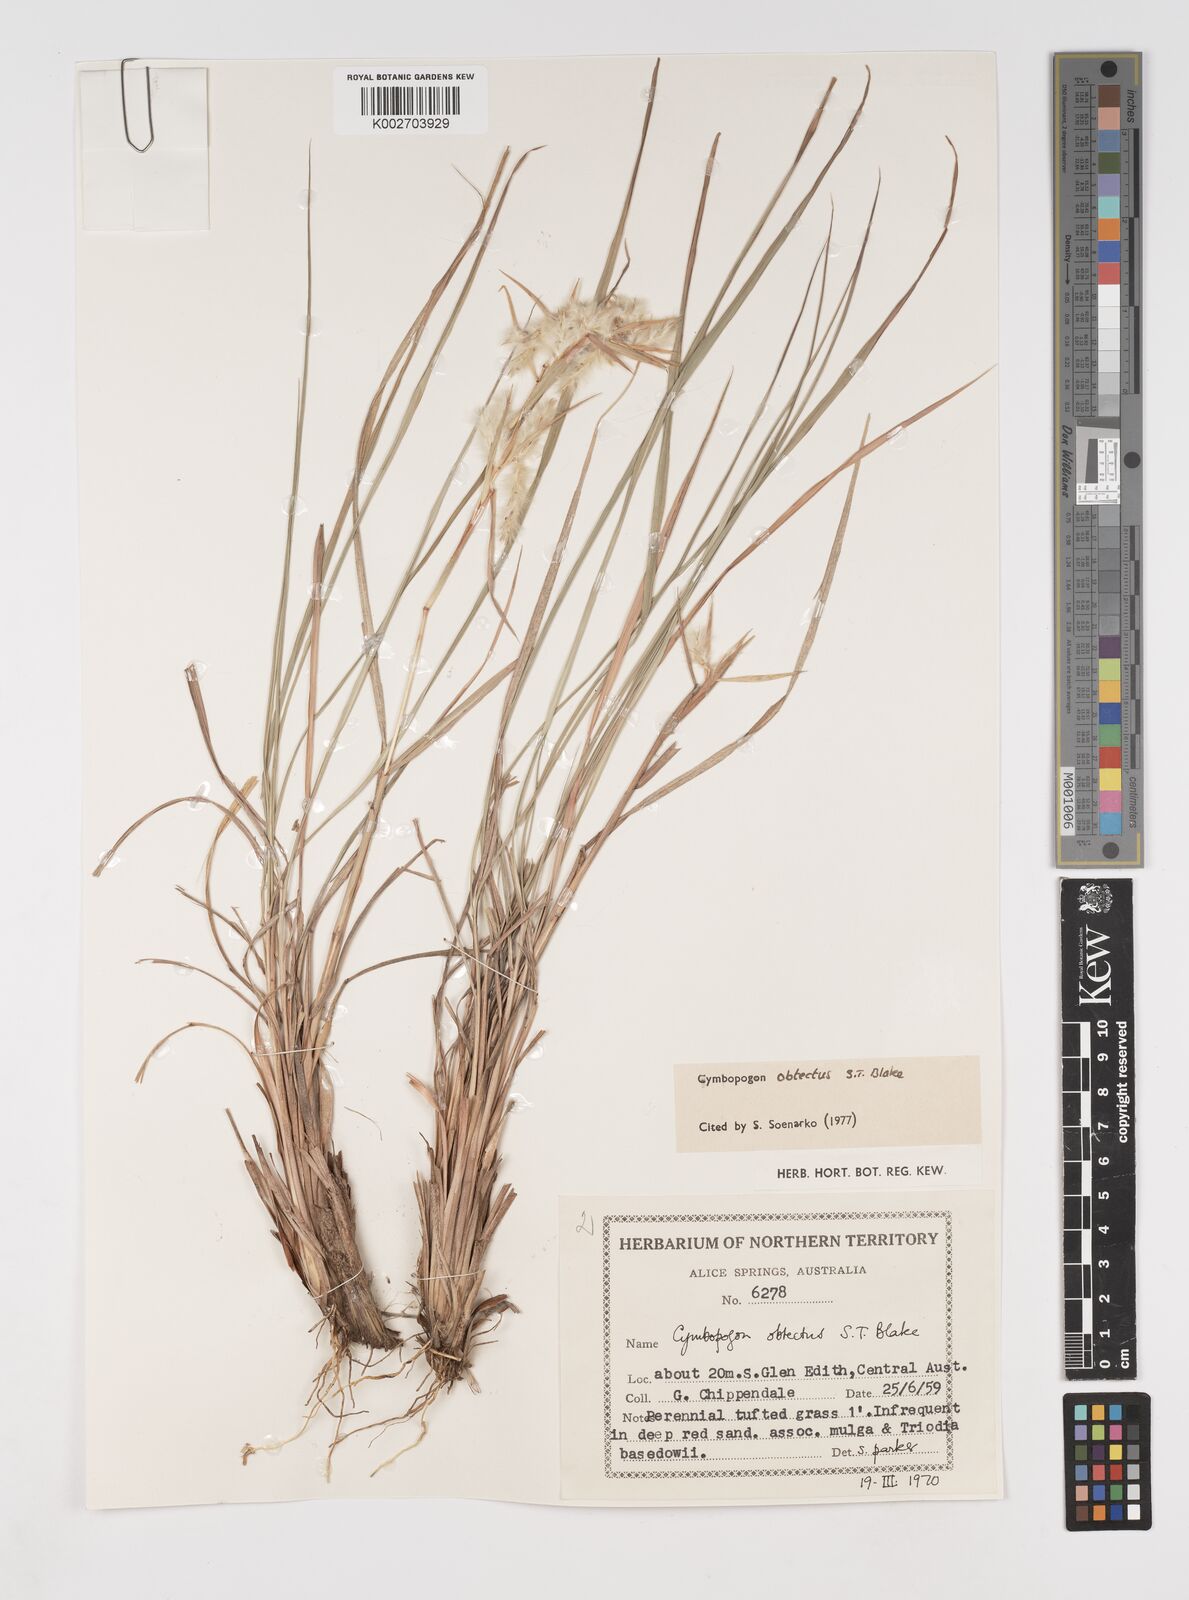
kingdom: Plantae
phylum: Tracheophyta
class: Liliopsida
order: Poales
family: Poaceae
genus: Cymbopogon
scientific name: Cymbopogon obtectus
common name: Silky heads
